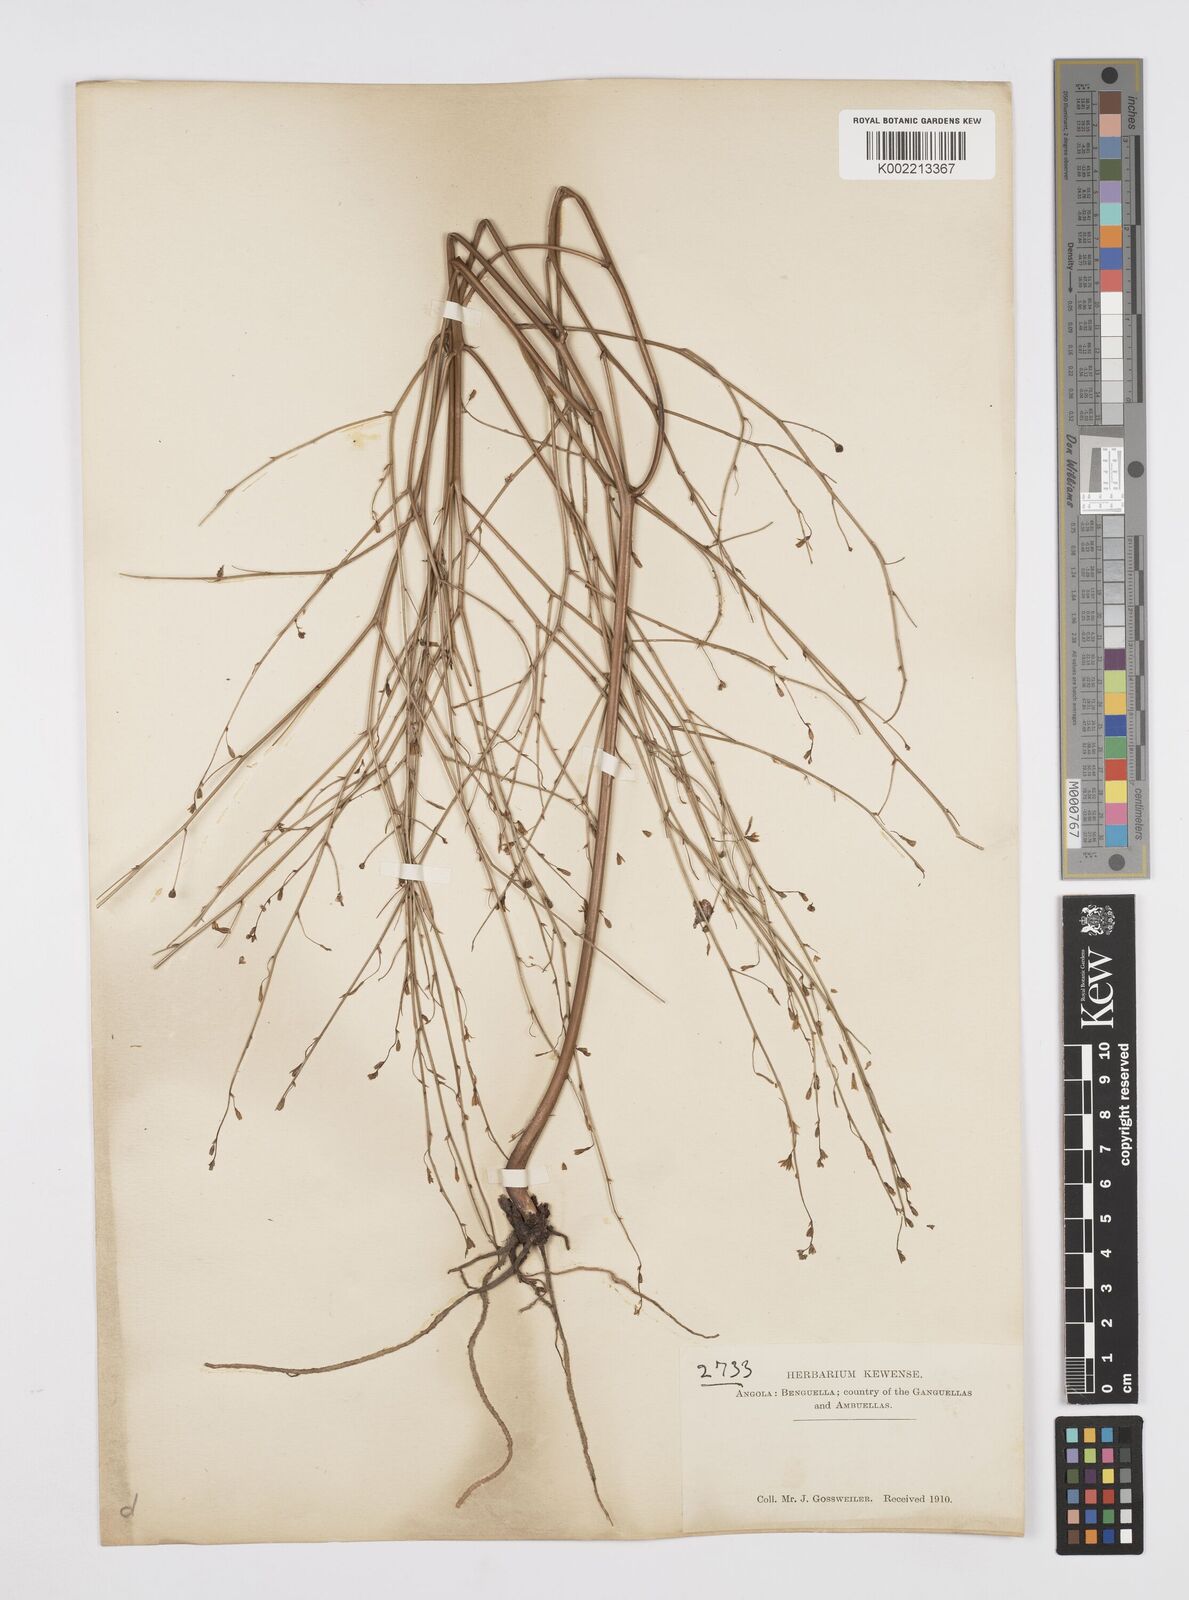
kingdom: Plantae
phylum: Tracheophyta
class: Liliopsida
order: Asparagales
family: Asphodelaceae
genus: Trachyandra
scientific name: Trachyandra arvensis
